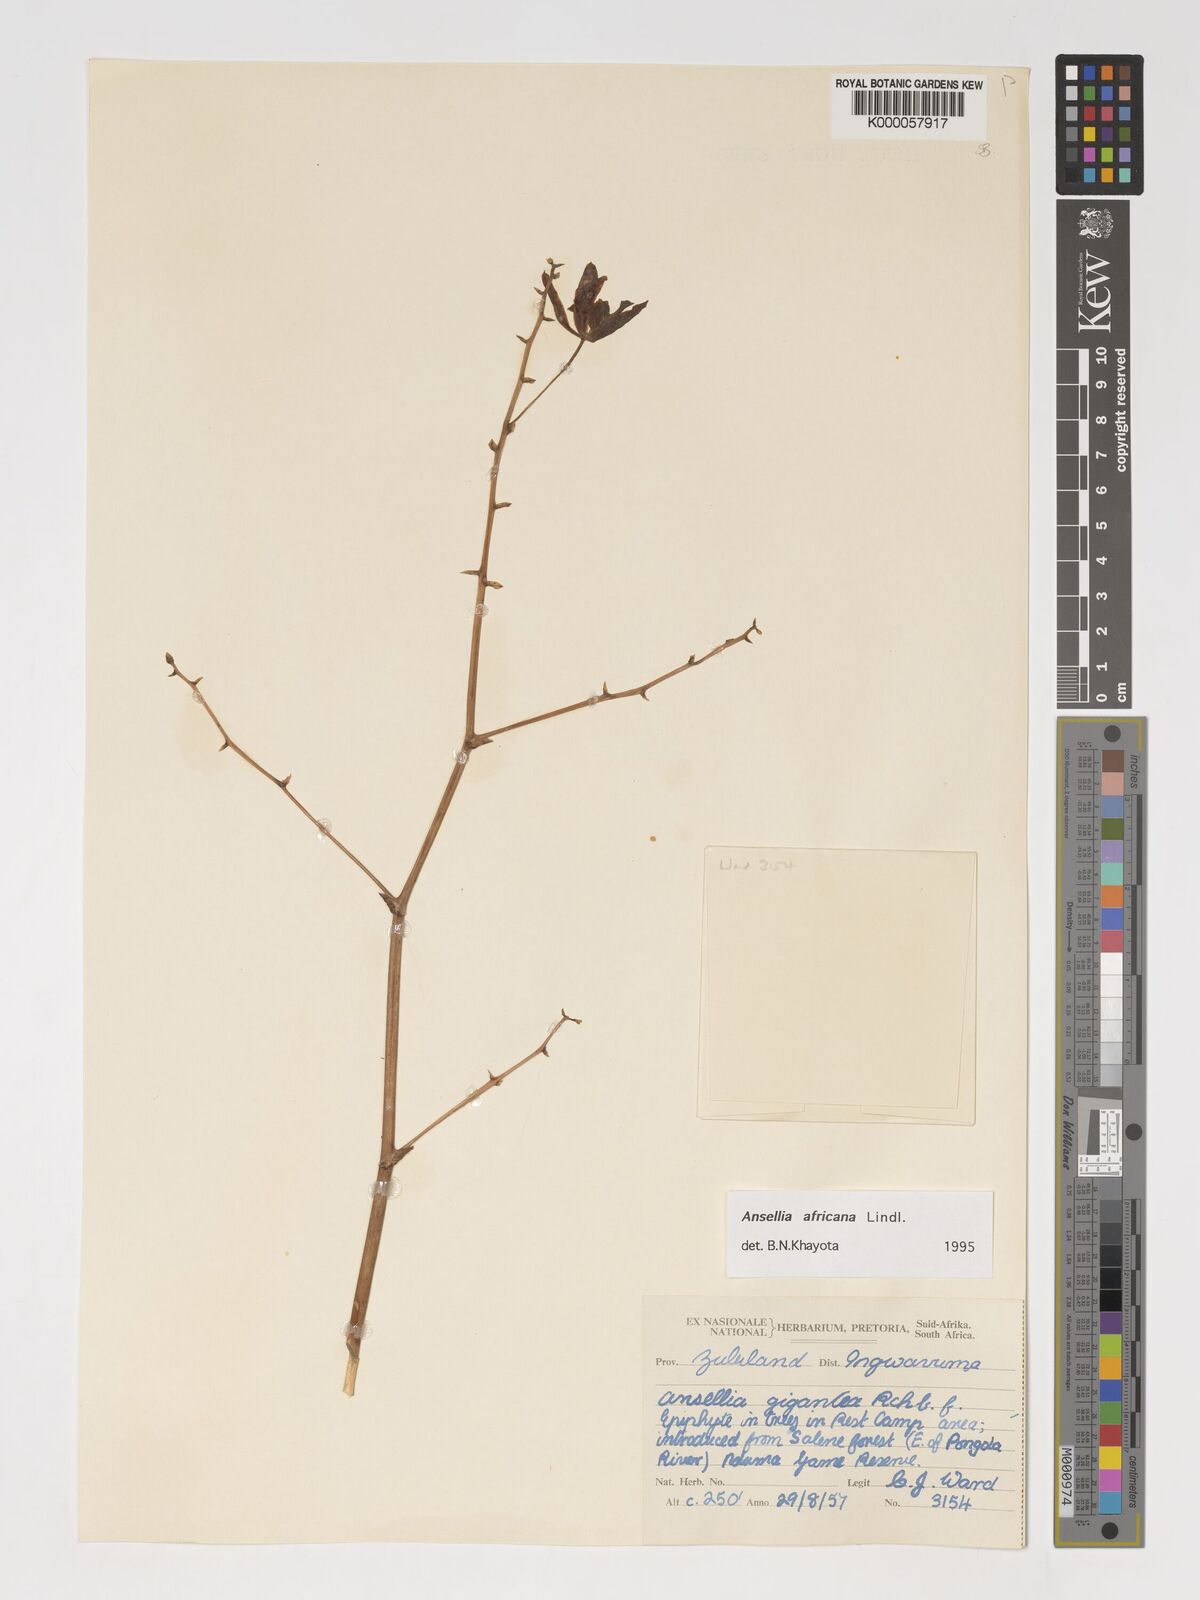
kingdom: Plantae
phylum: Tracheophyta
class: Liliopsida
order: Asparagales
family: Orchidaceae
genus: Ansellia
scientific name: Ansellia africana
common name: African ansellia
